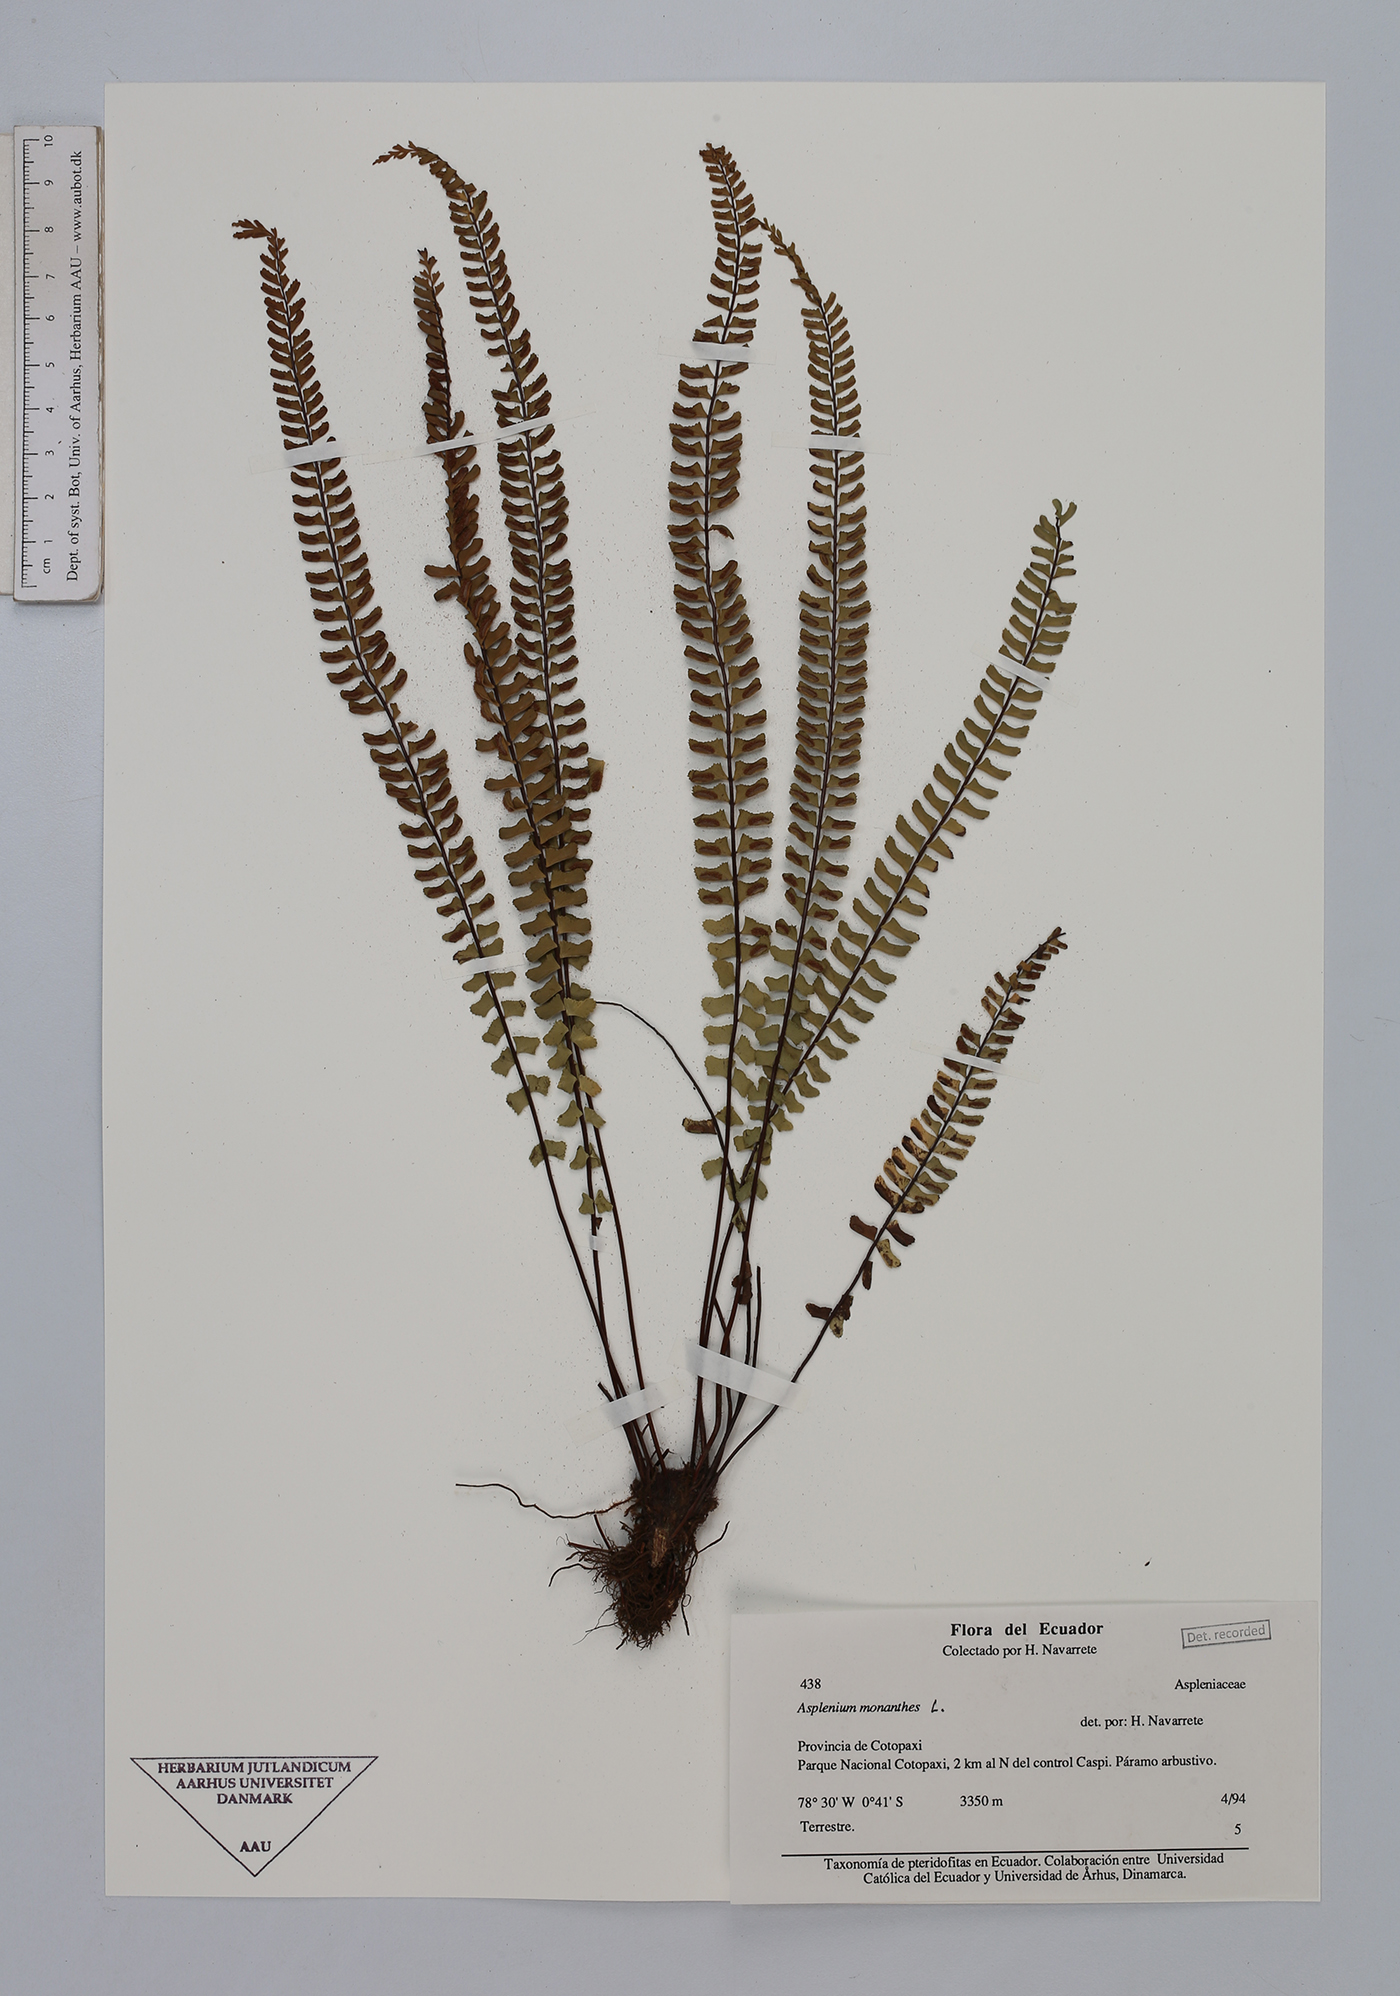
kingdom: Plantae
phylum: Tracheophyta
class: Polypodiopsida
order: Polypodiales
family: Aspleniaceae
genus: Asplenium
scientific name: Asplenium monanthes
